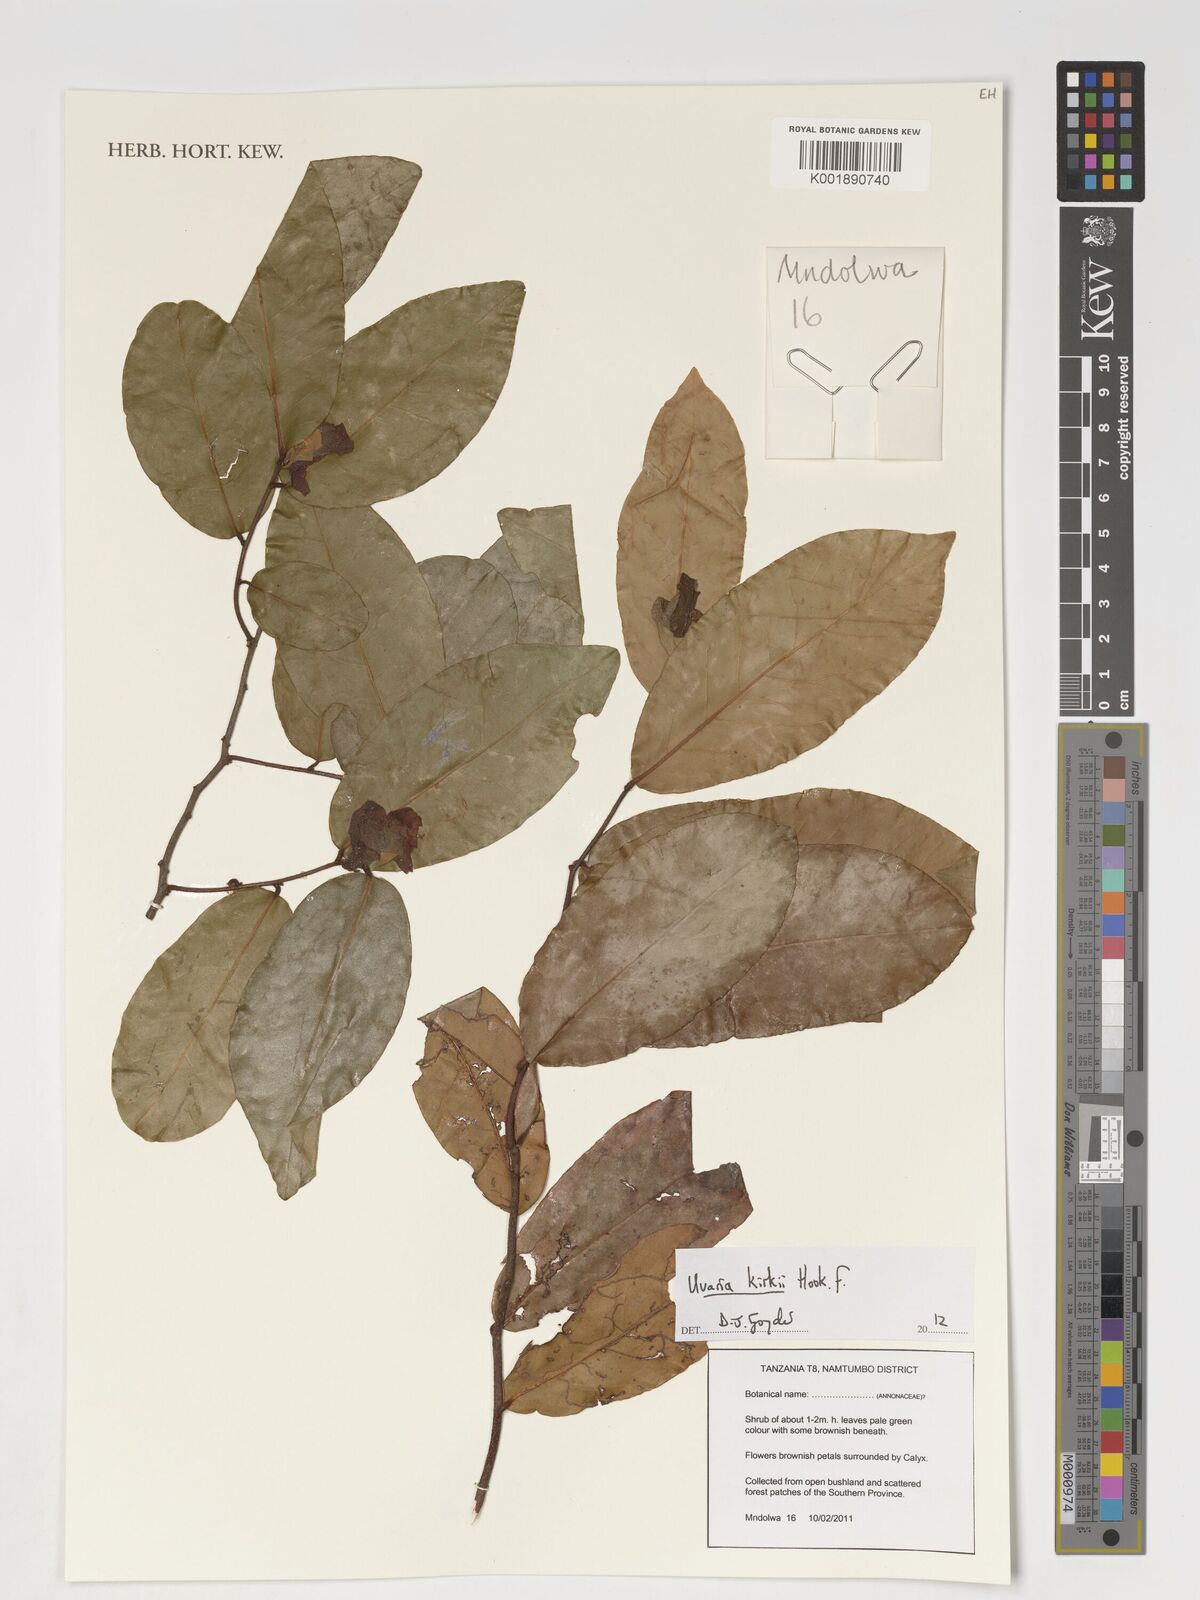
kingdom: Plantae
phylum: Tracheophyta
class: Magnoliopsida
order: Magnoliales
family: Annonaceae
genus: Uvaria
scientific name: Uvaria kirkii
